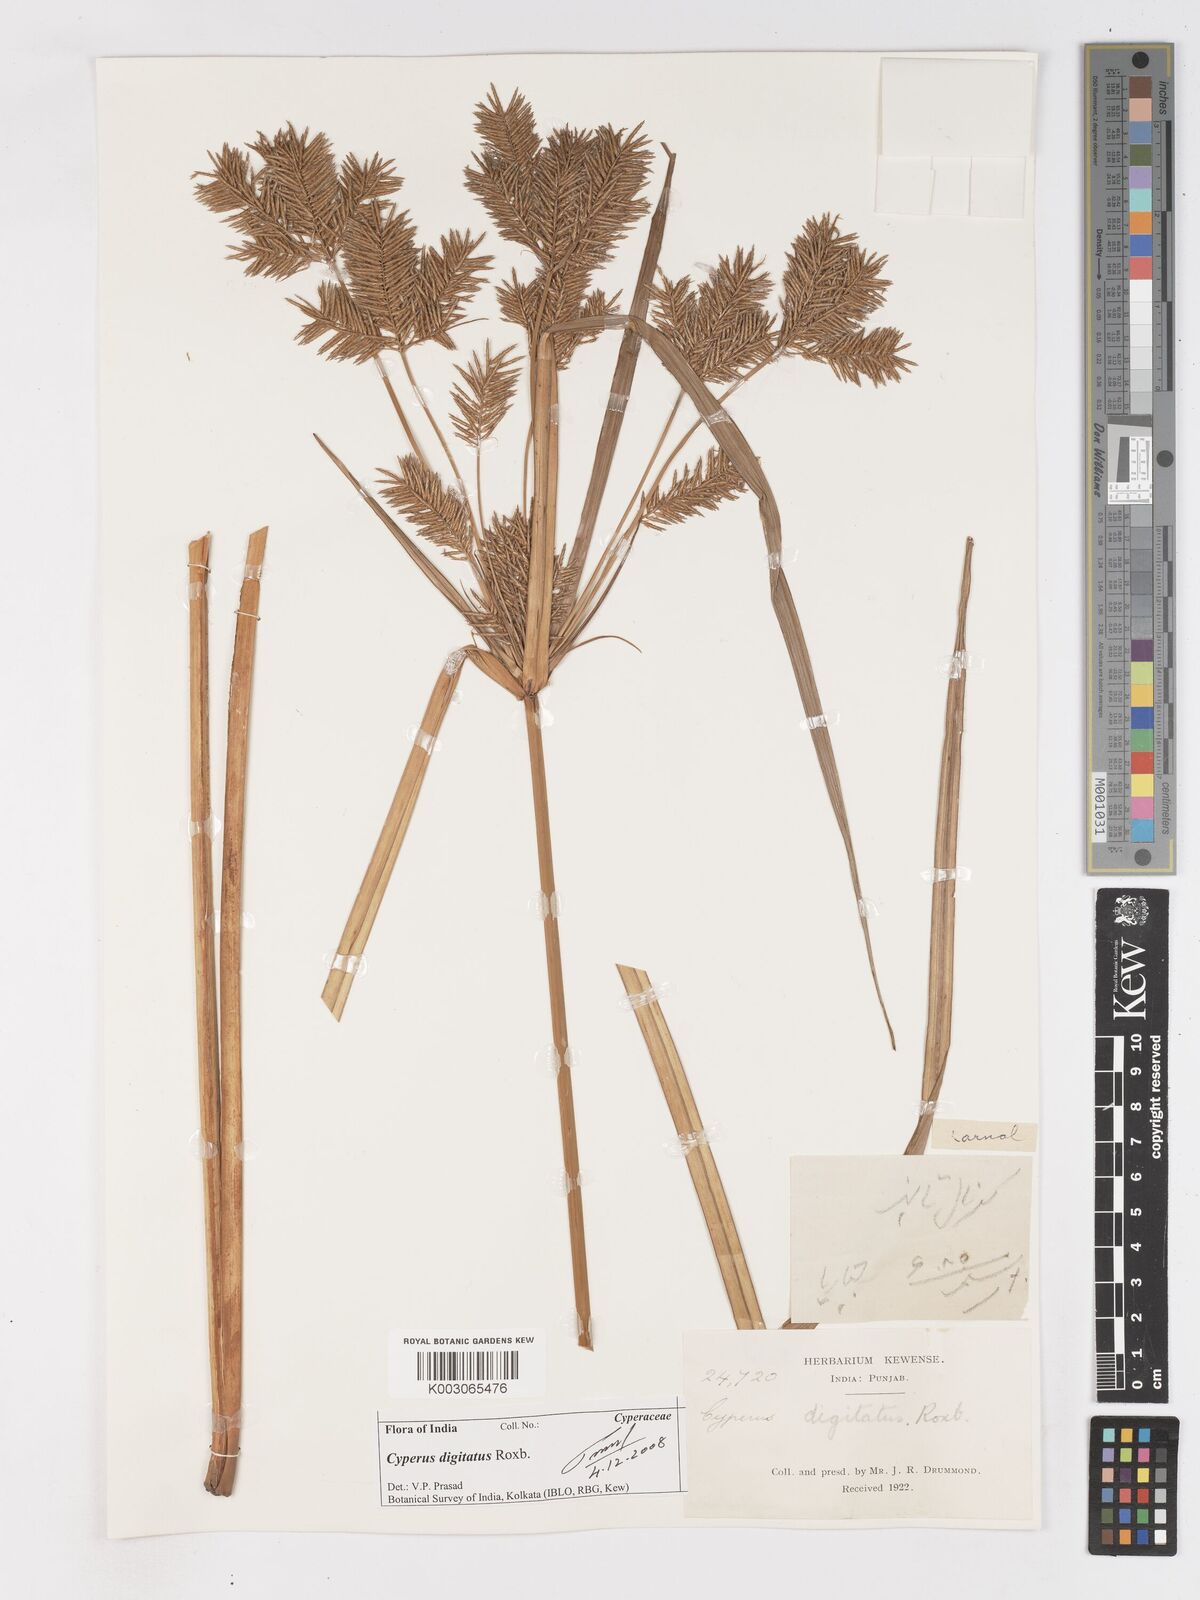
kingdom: Plantae
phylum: Tracheophyta
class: Liliopsida
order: Poales
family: Cyperaceae
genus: Cyperus
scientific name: Cyperus digitatus
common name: Finger flatsedge
